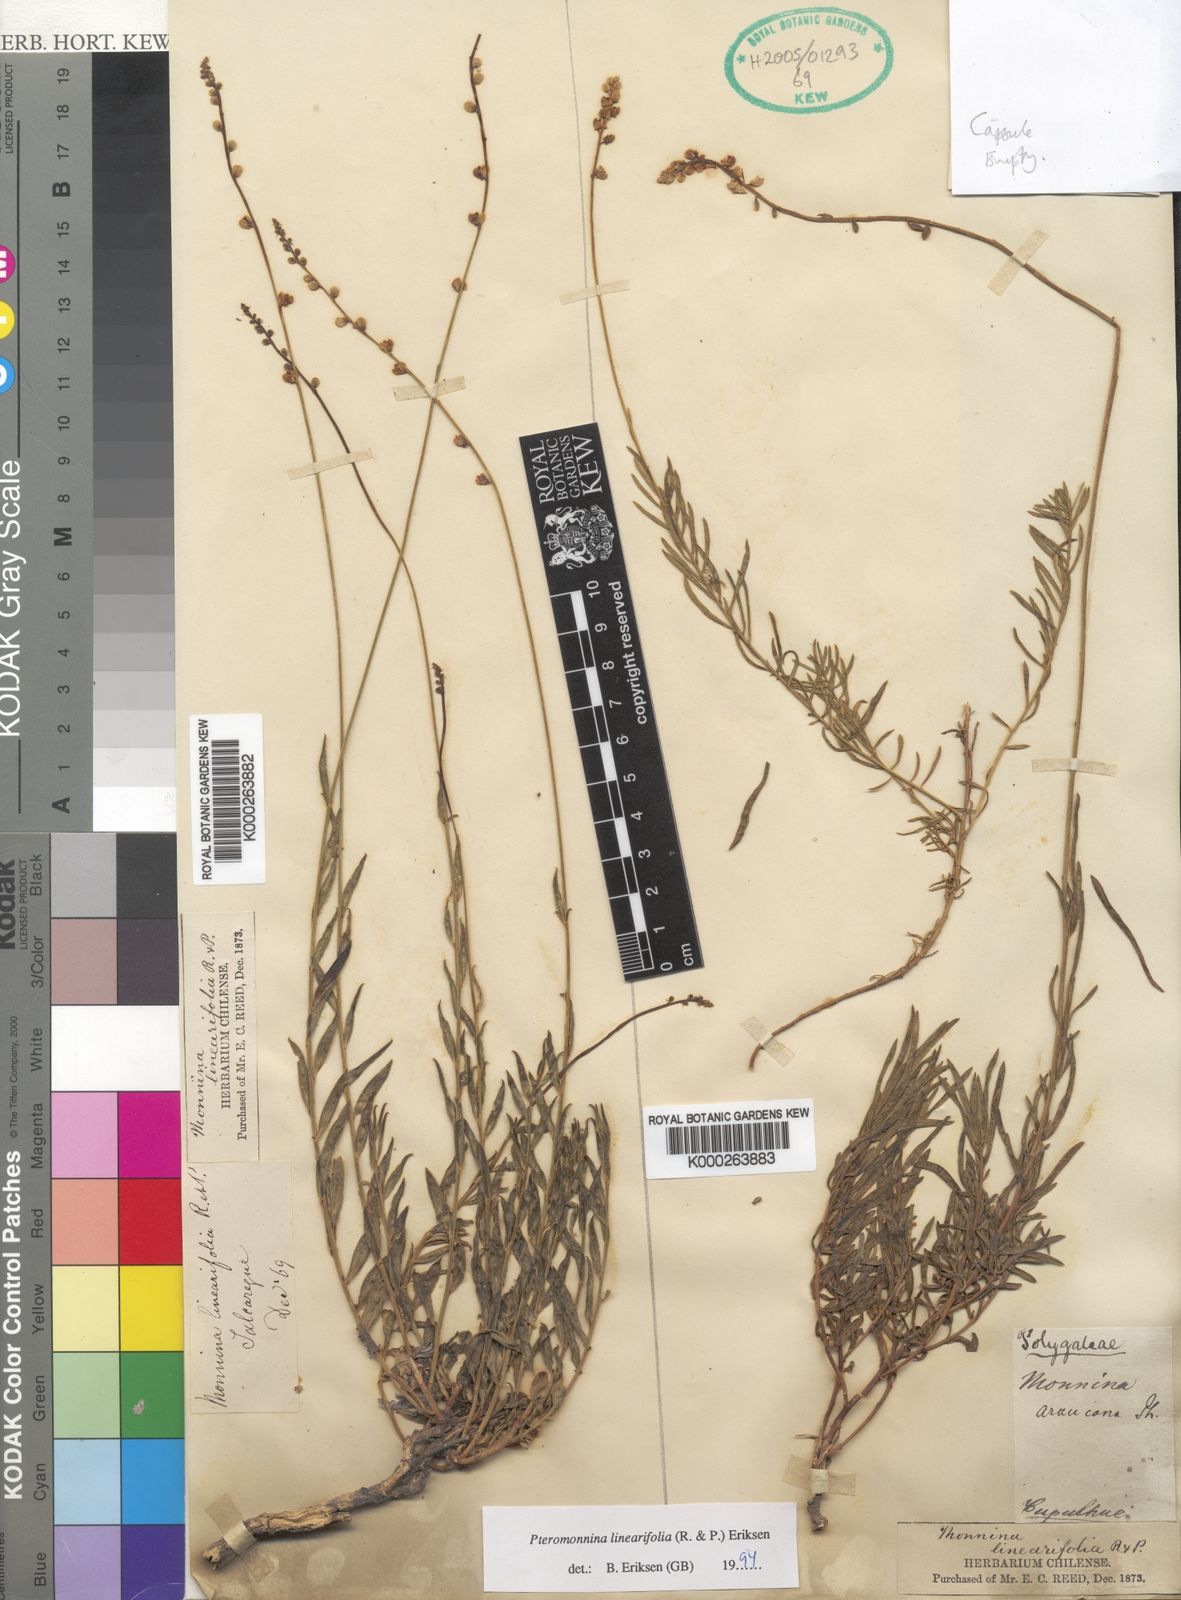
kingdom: Plantae
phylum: Tracheophyta
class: Magnoliopsida
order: Fabales
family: Polygalaceae
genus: Monnina
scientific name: Monnina
